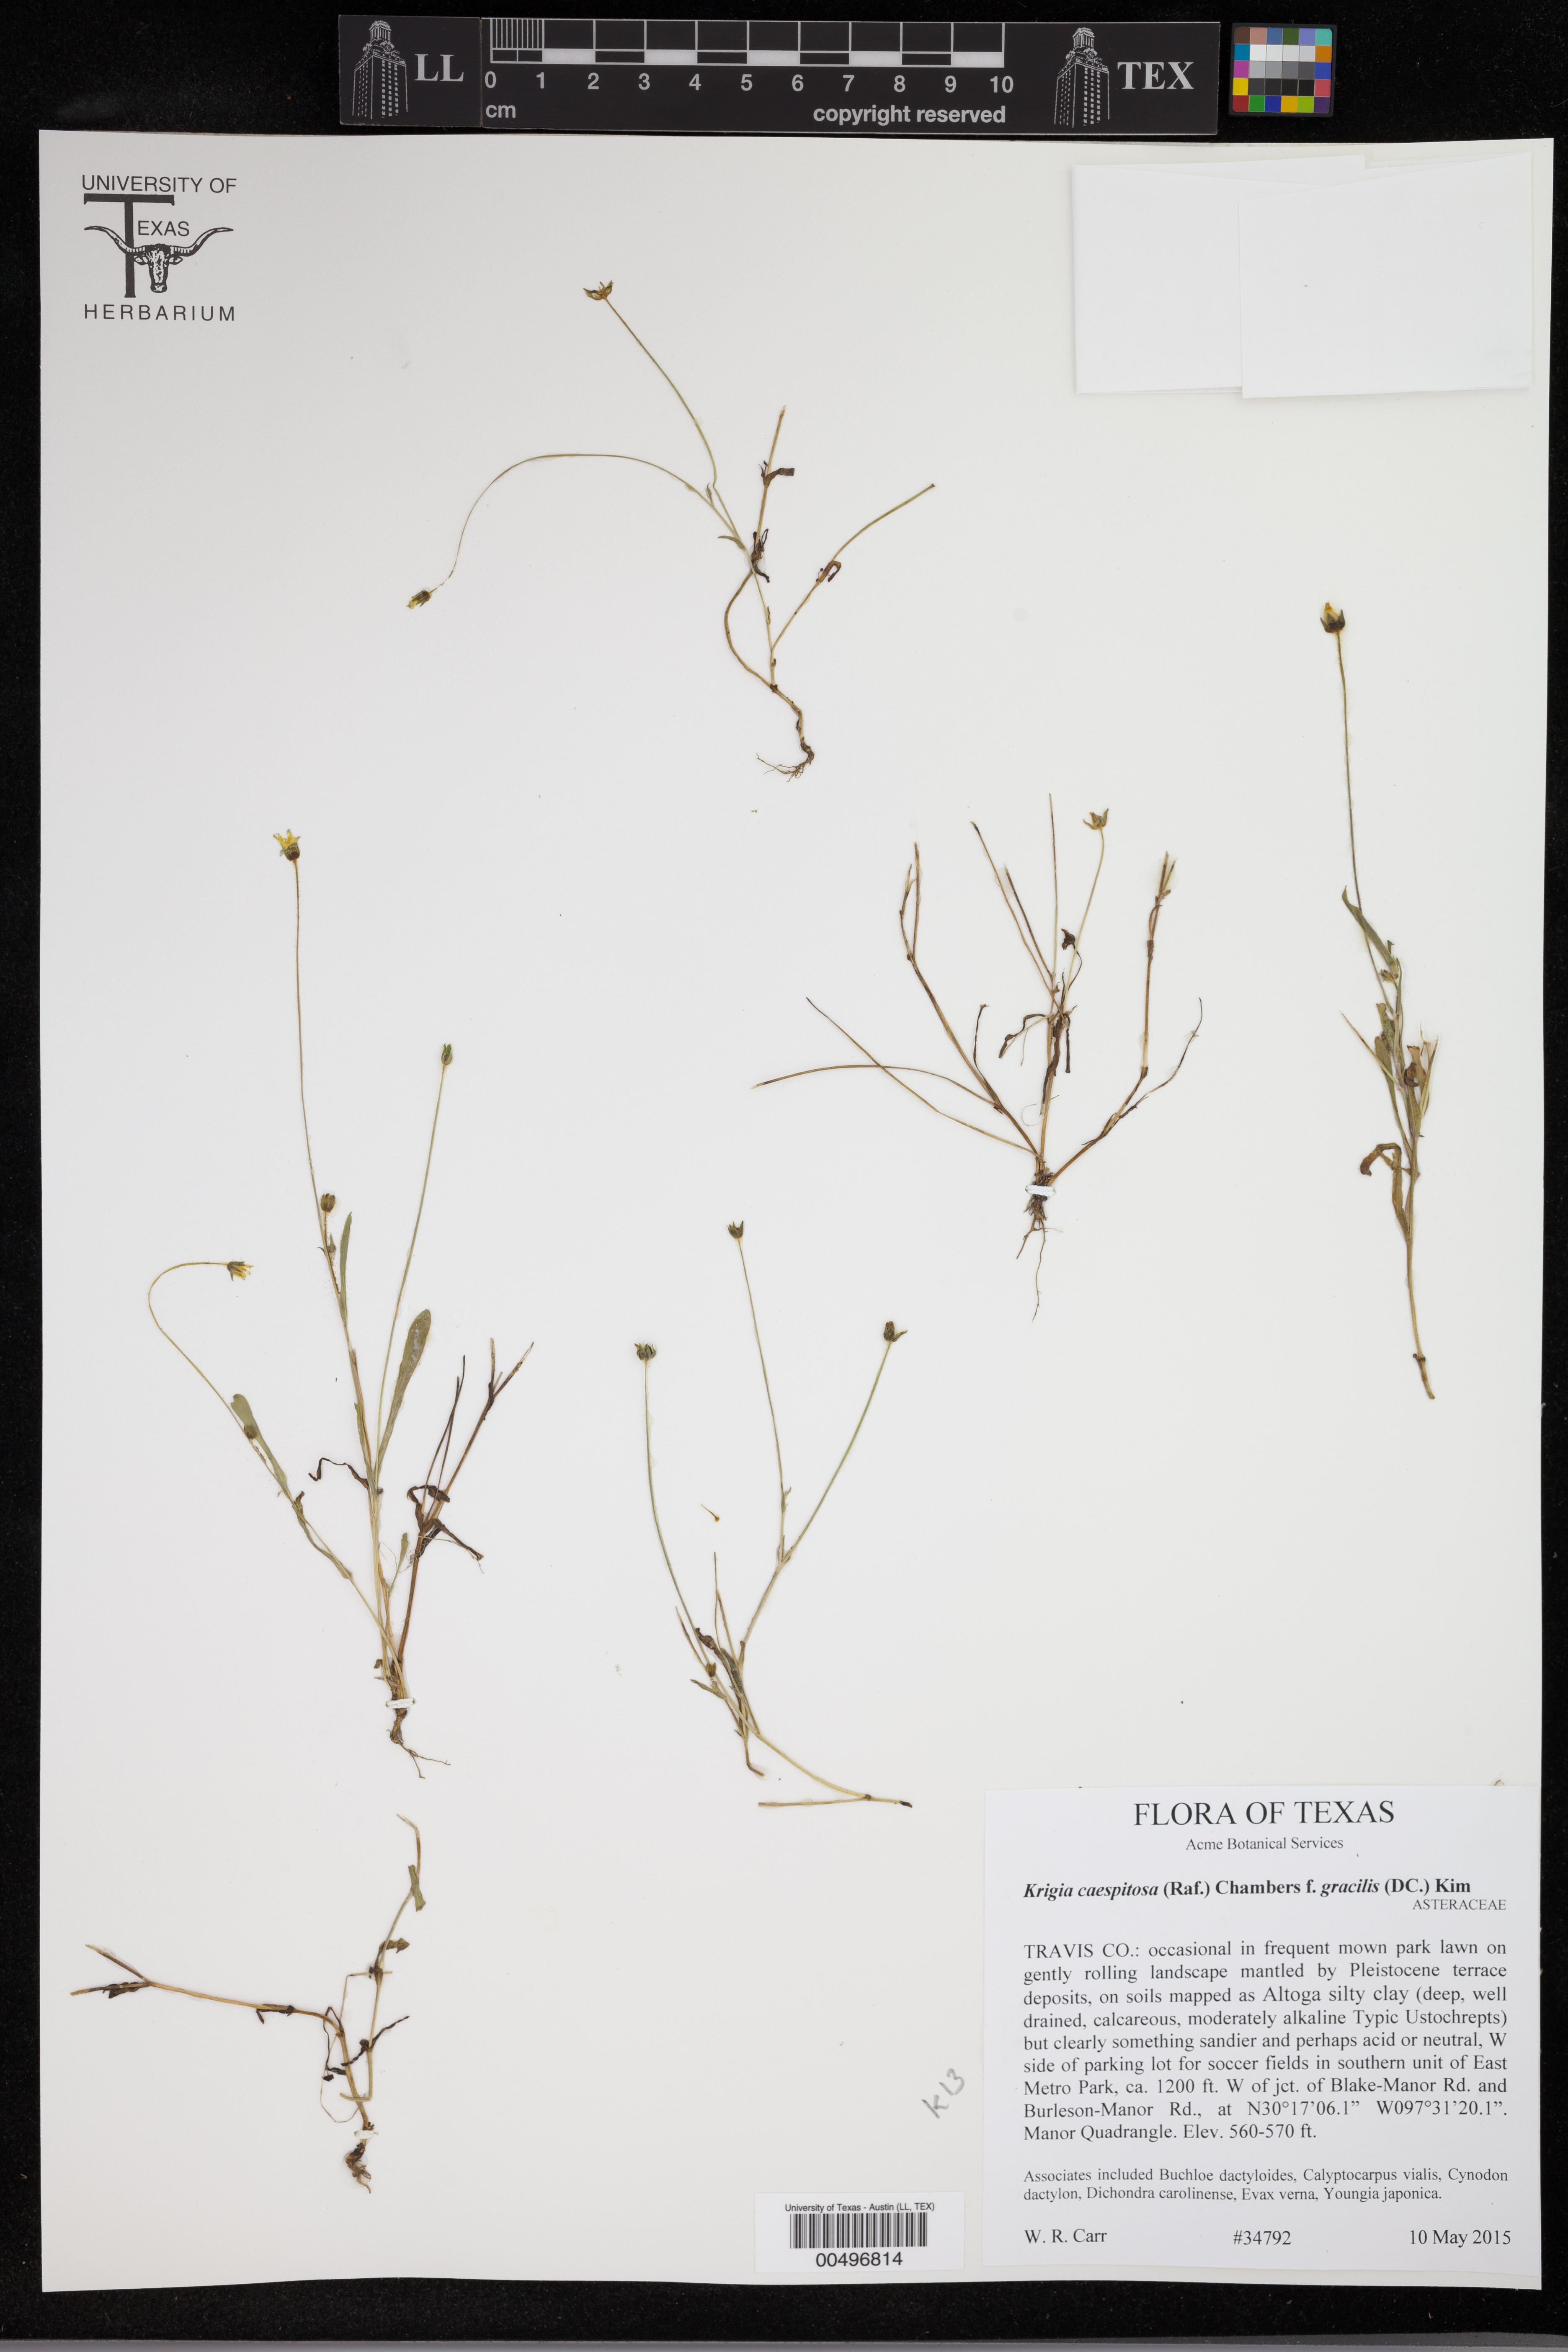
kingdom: Plantae
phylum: Tracheophyta
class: Magnoliopsida
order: Asterales
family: Asteraceae
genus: Krigia
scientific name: Krigia cespitosa
